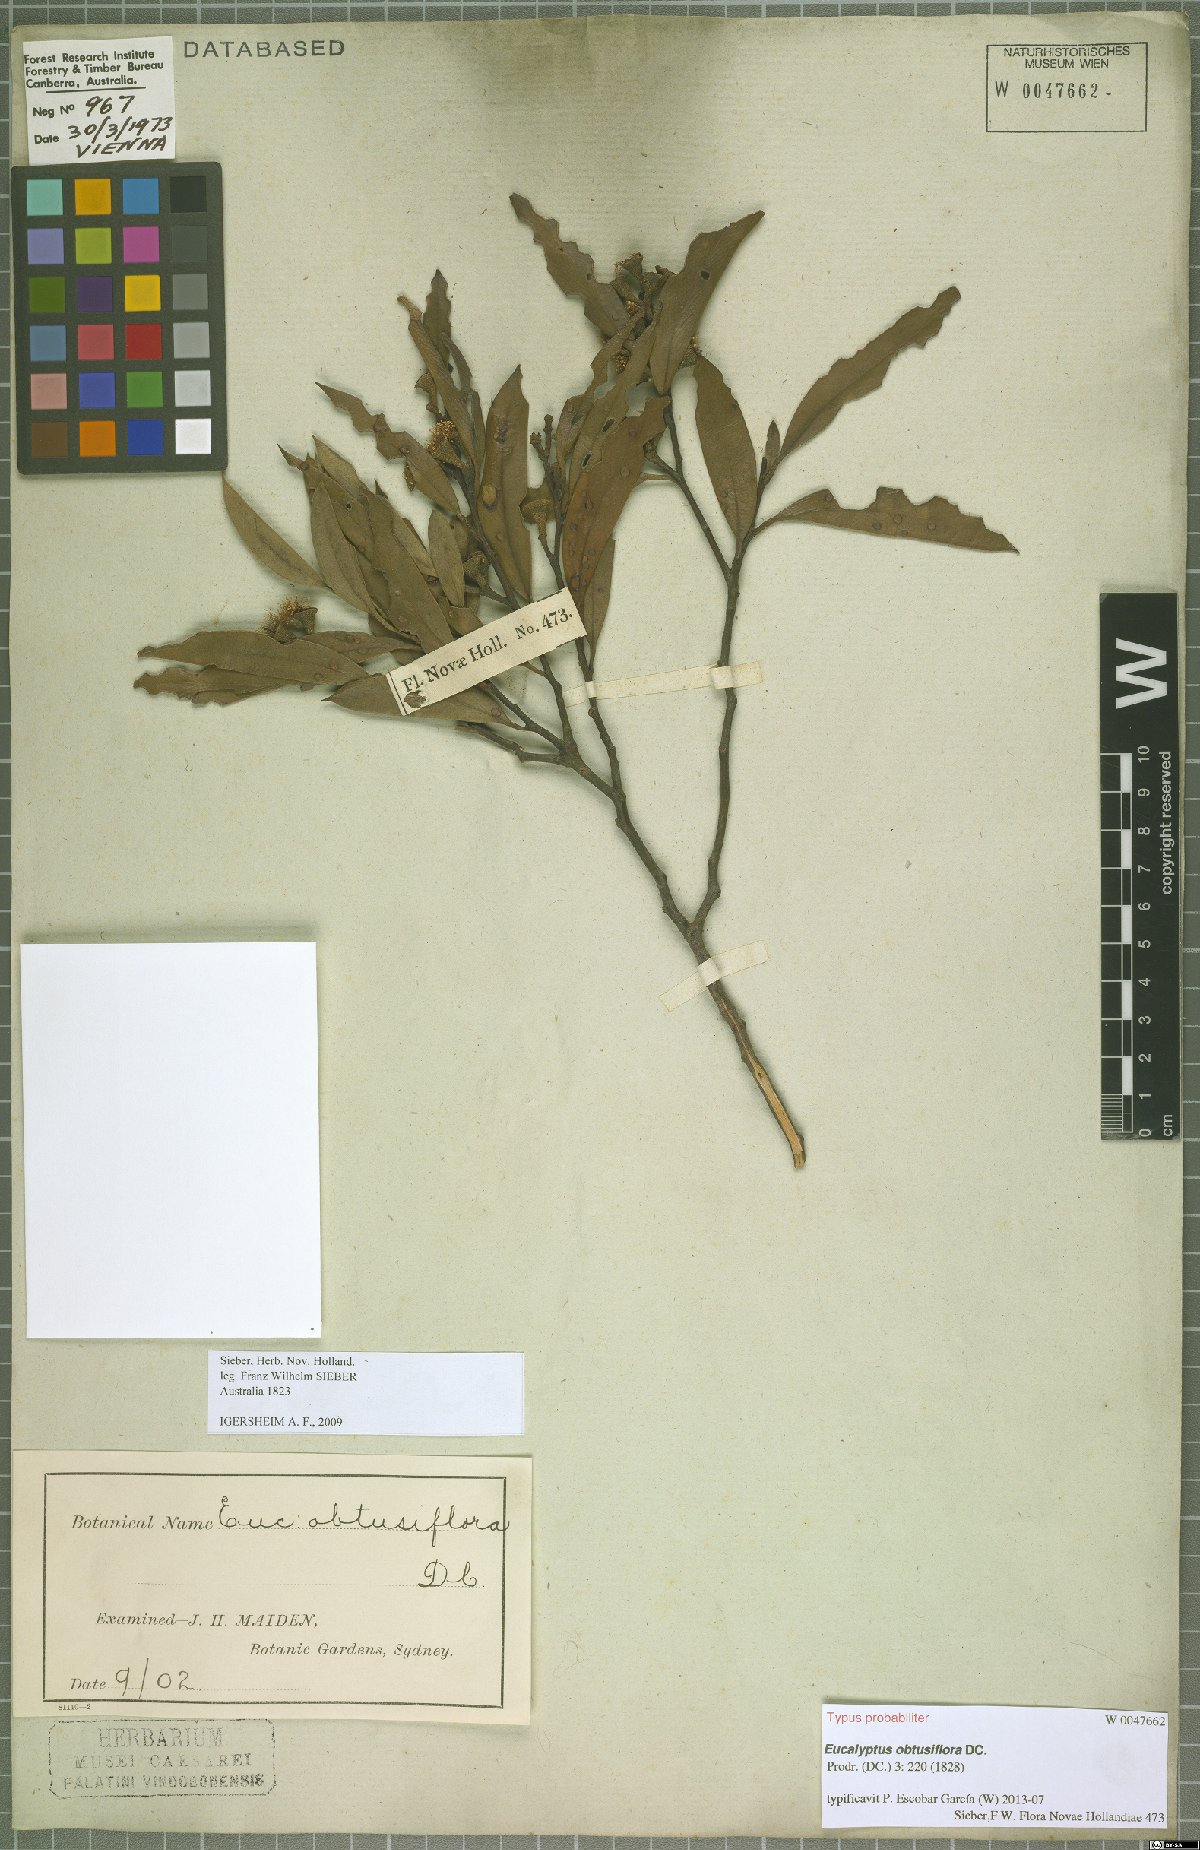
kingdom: Plantae
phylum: Tracheophyta
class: Magnoliopsida
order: Myrtales
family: Myrtaceae
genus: Eucalyptus
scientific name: Eucalyptus obtusiflora
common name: Dongara-mallee
